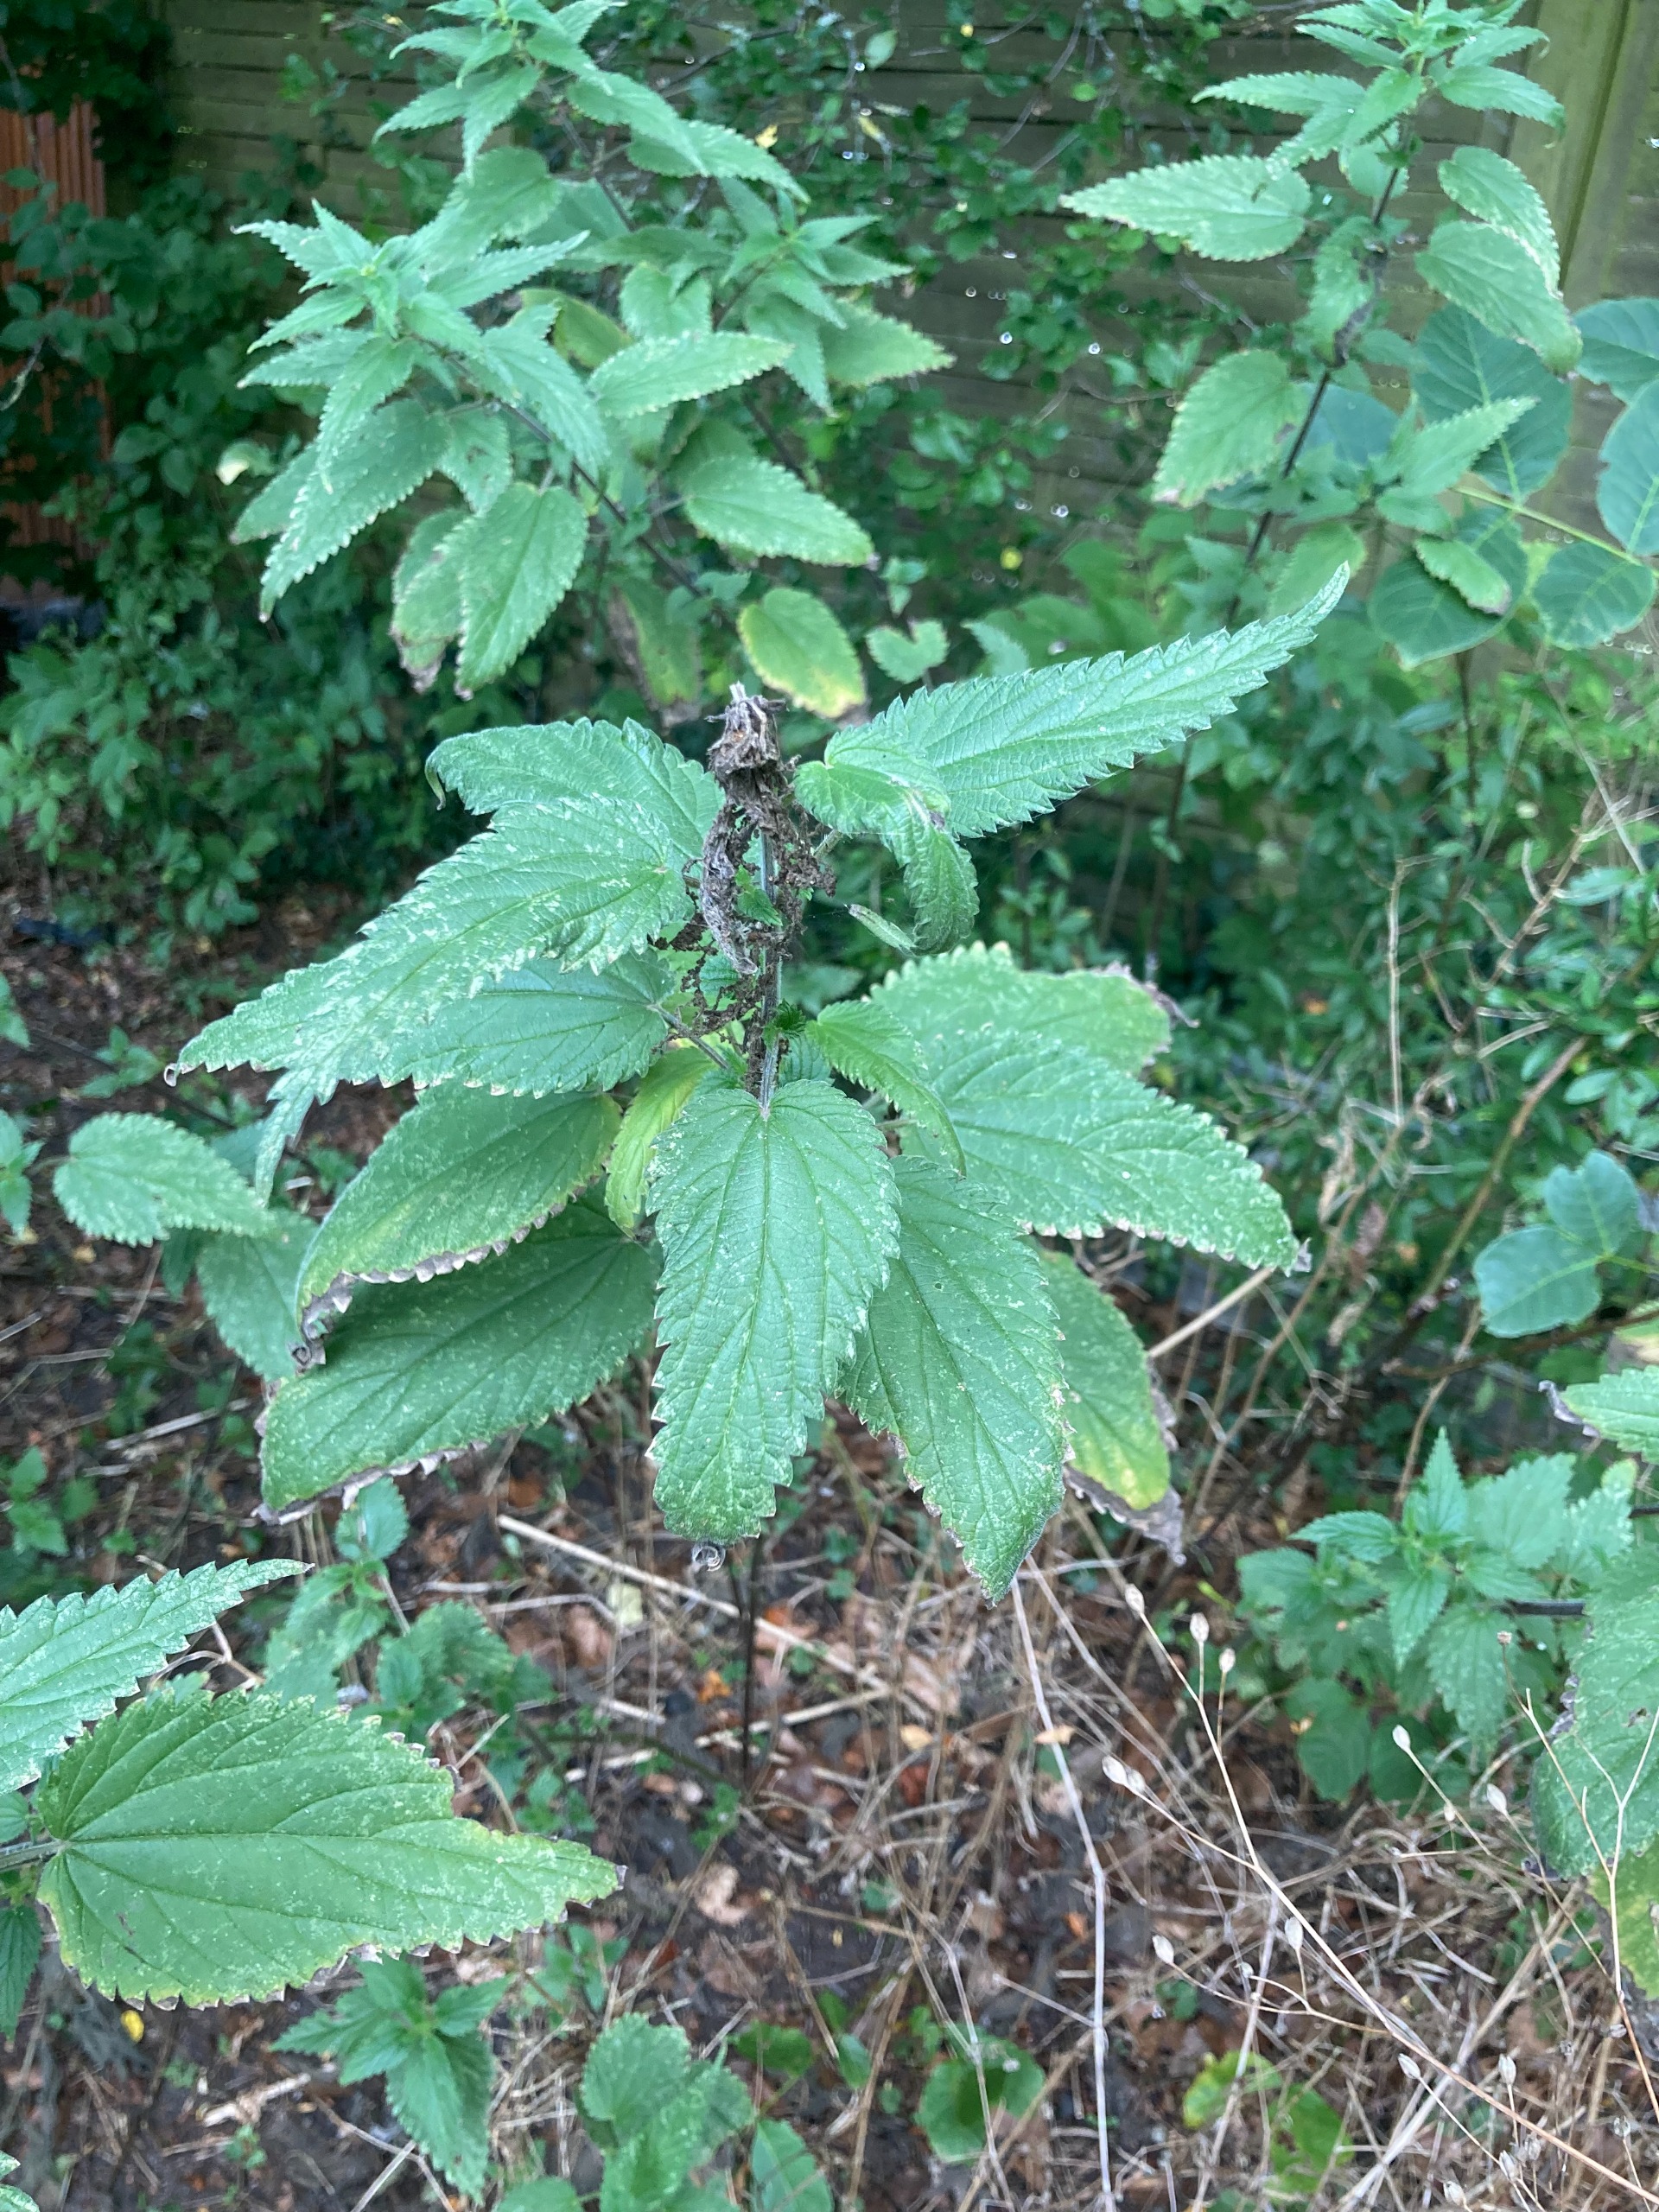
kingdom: Plantae
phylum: Tracheophyta
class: Magnoliopsida
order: Rosales
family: Urticaceae
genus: Urtica
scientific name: Urtica dioica
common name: Stor nælde
